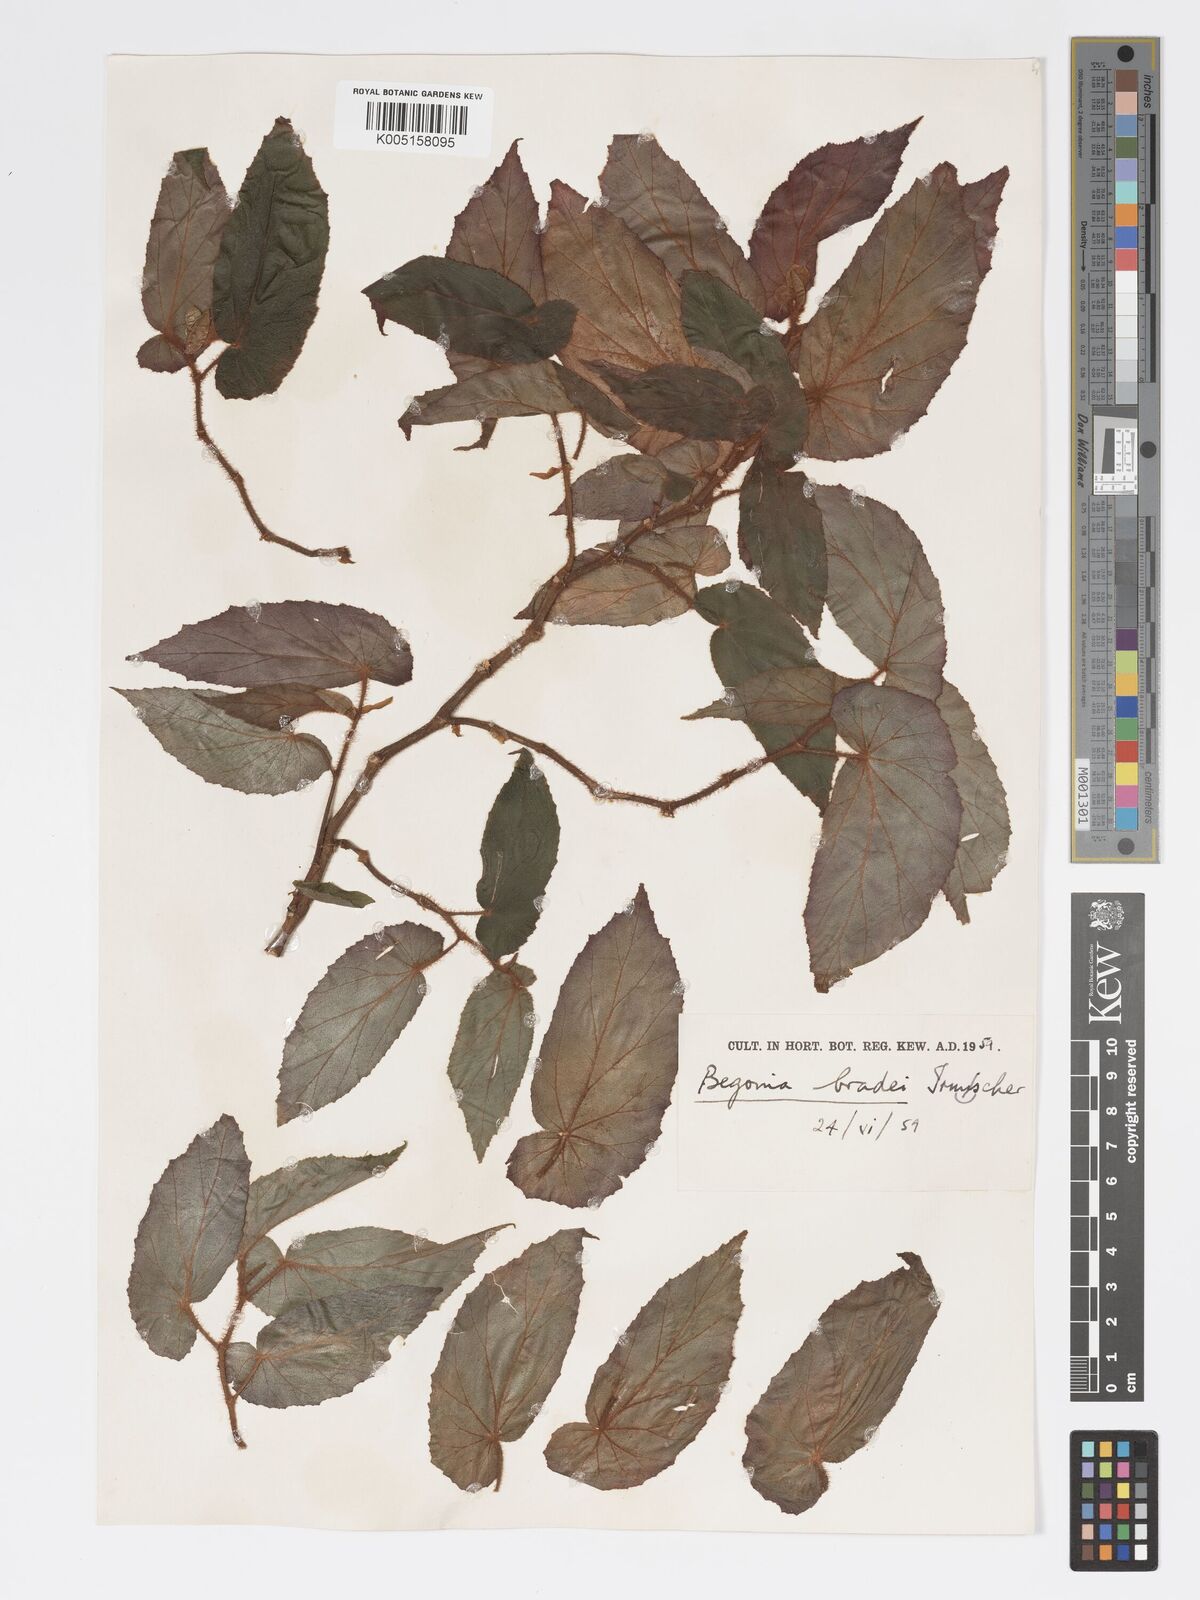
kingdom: Plantae
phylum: Tracheophyta
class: Magnoliopsida
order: Cucurbitales
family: Begoniaceae
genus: Begonia
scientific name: Begonia bradei
